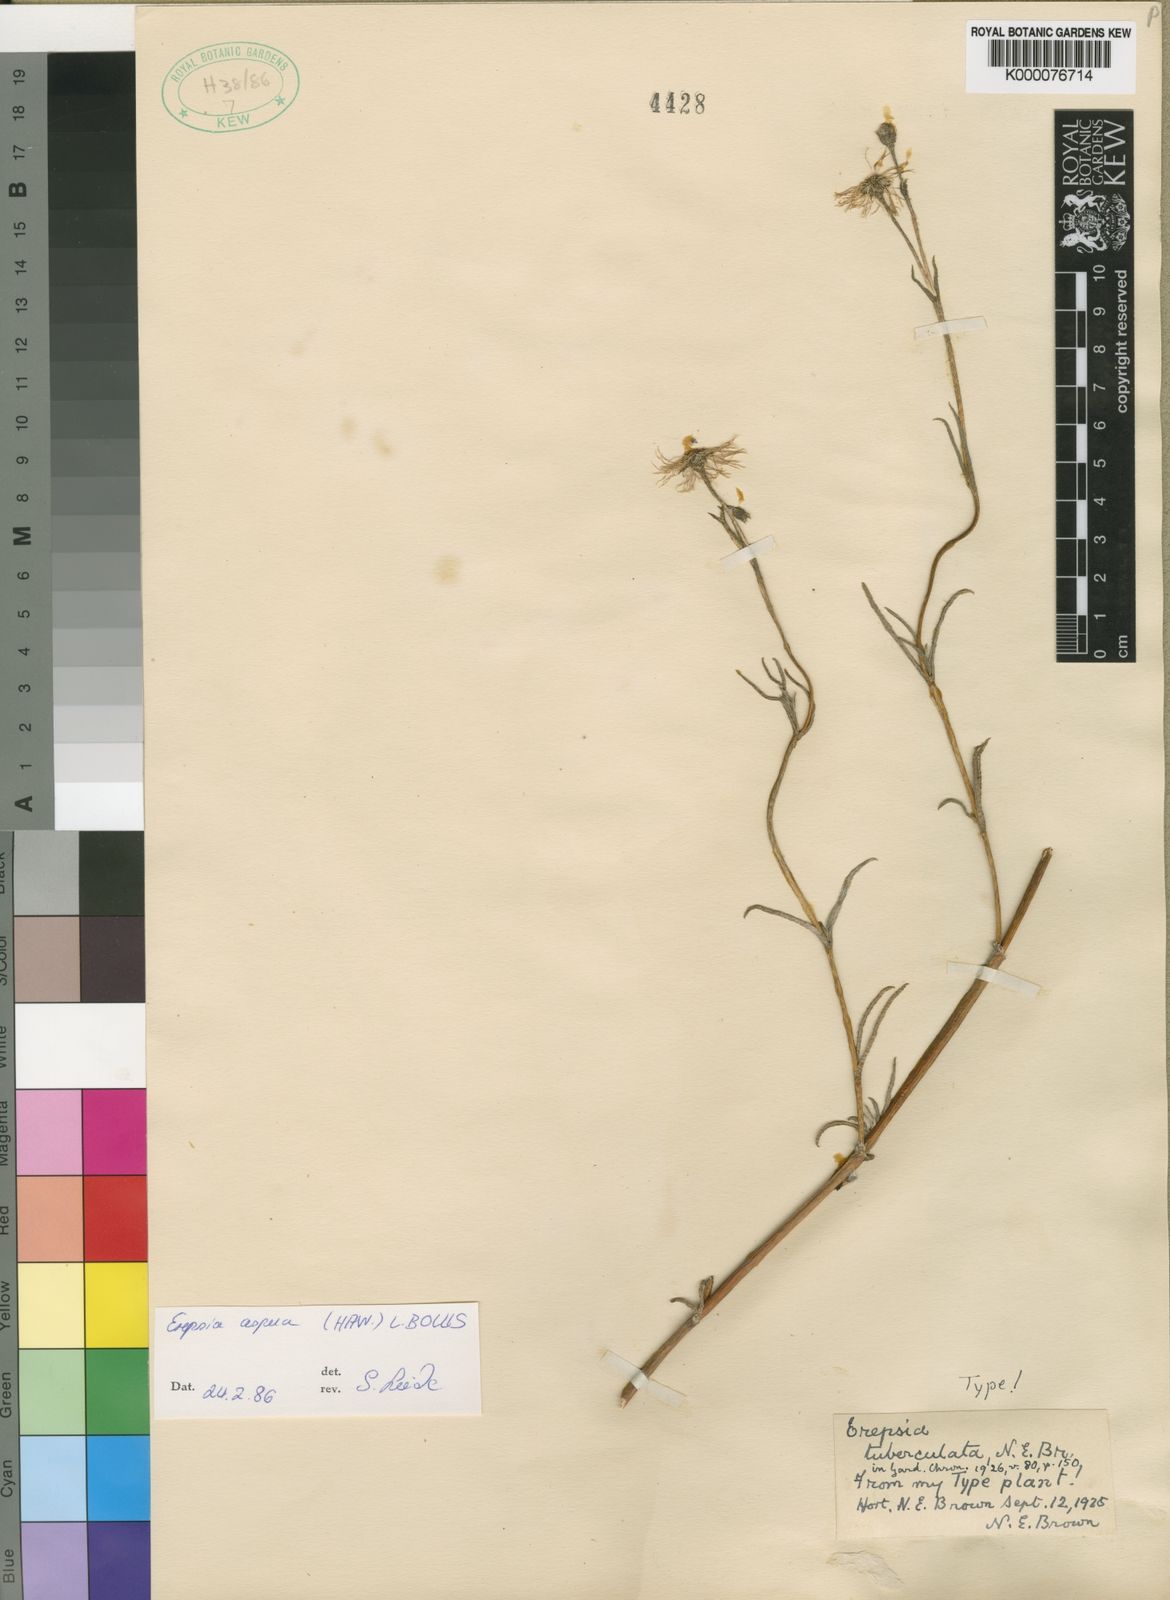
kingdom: Plantae
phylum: Tracheophyta
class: Magnoliopsida
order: Caryophyllales
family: Aizoaceae
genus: Erepsia
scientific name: Erepsia aspera
